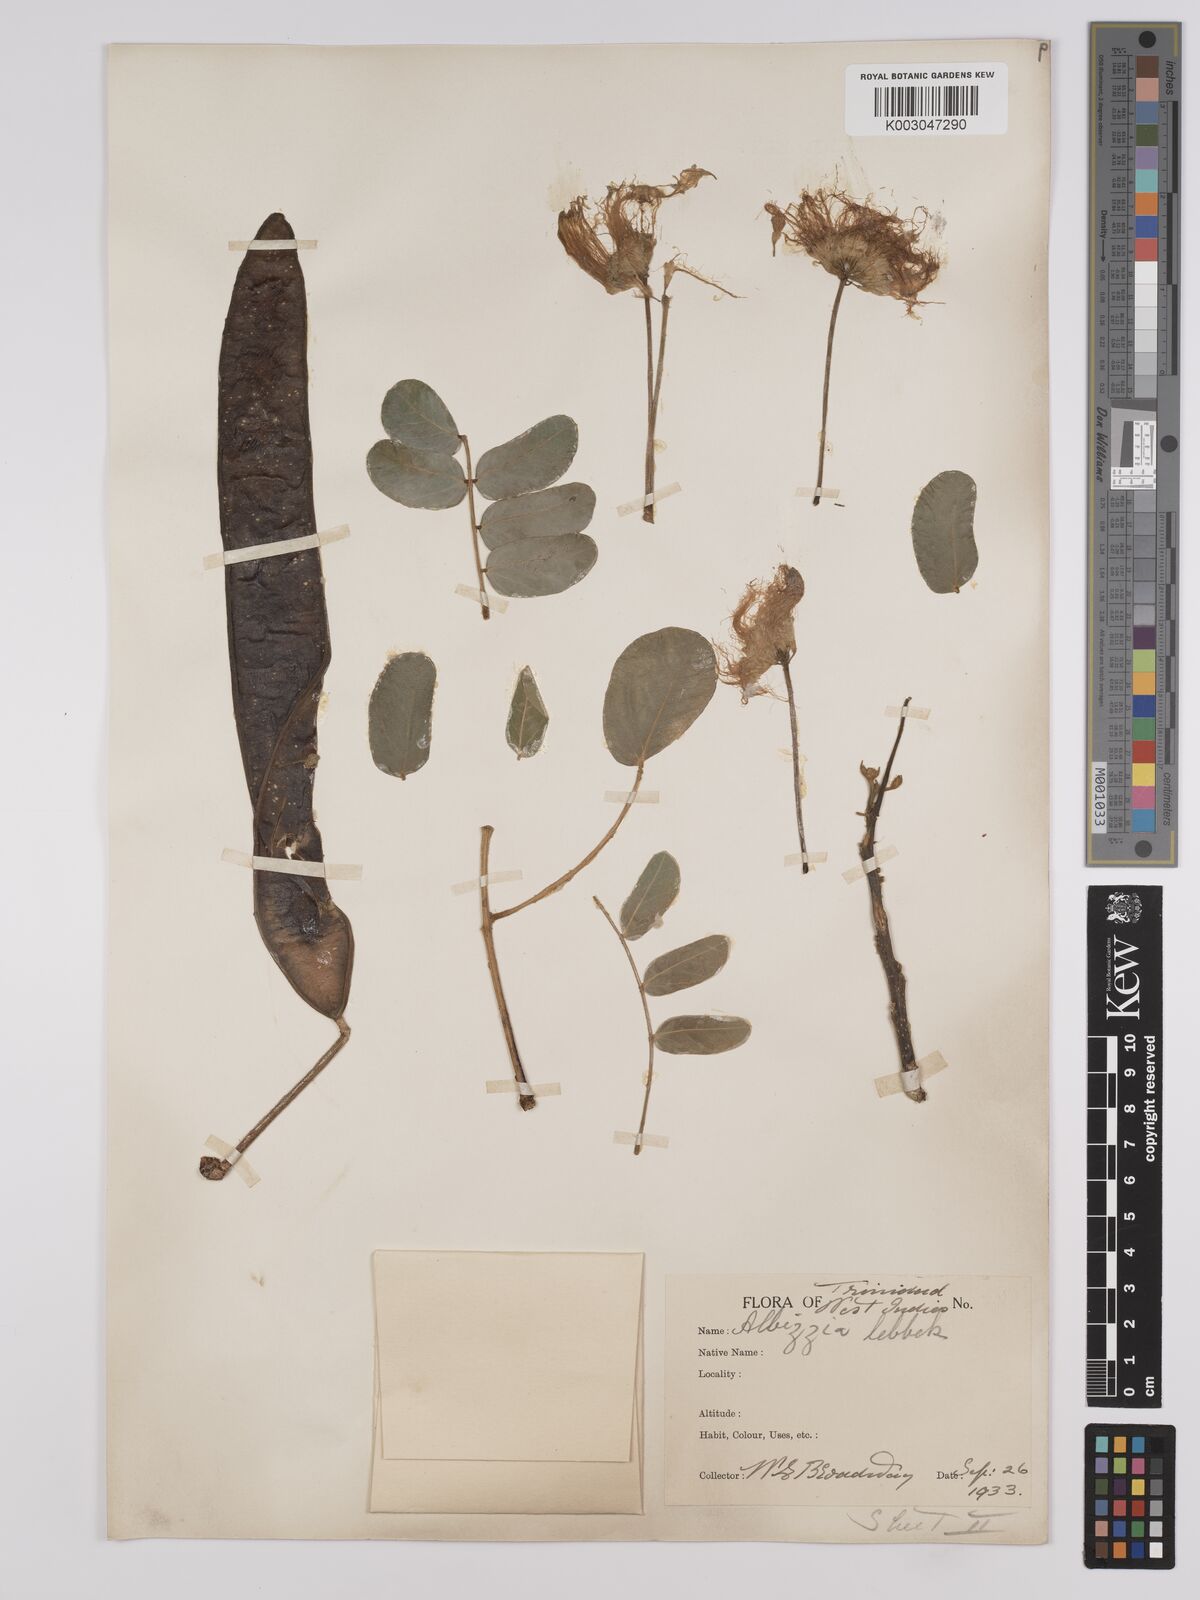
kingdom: Plantae
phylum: Tracheophyta
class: Magnoliopsida
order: Fabales
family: Fabaceae
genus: Albizia
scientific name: Albizia lebbeck
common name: Woman's tongue
